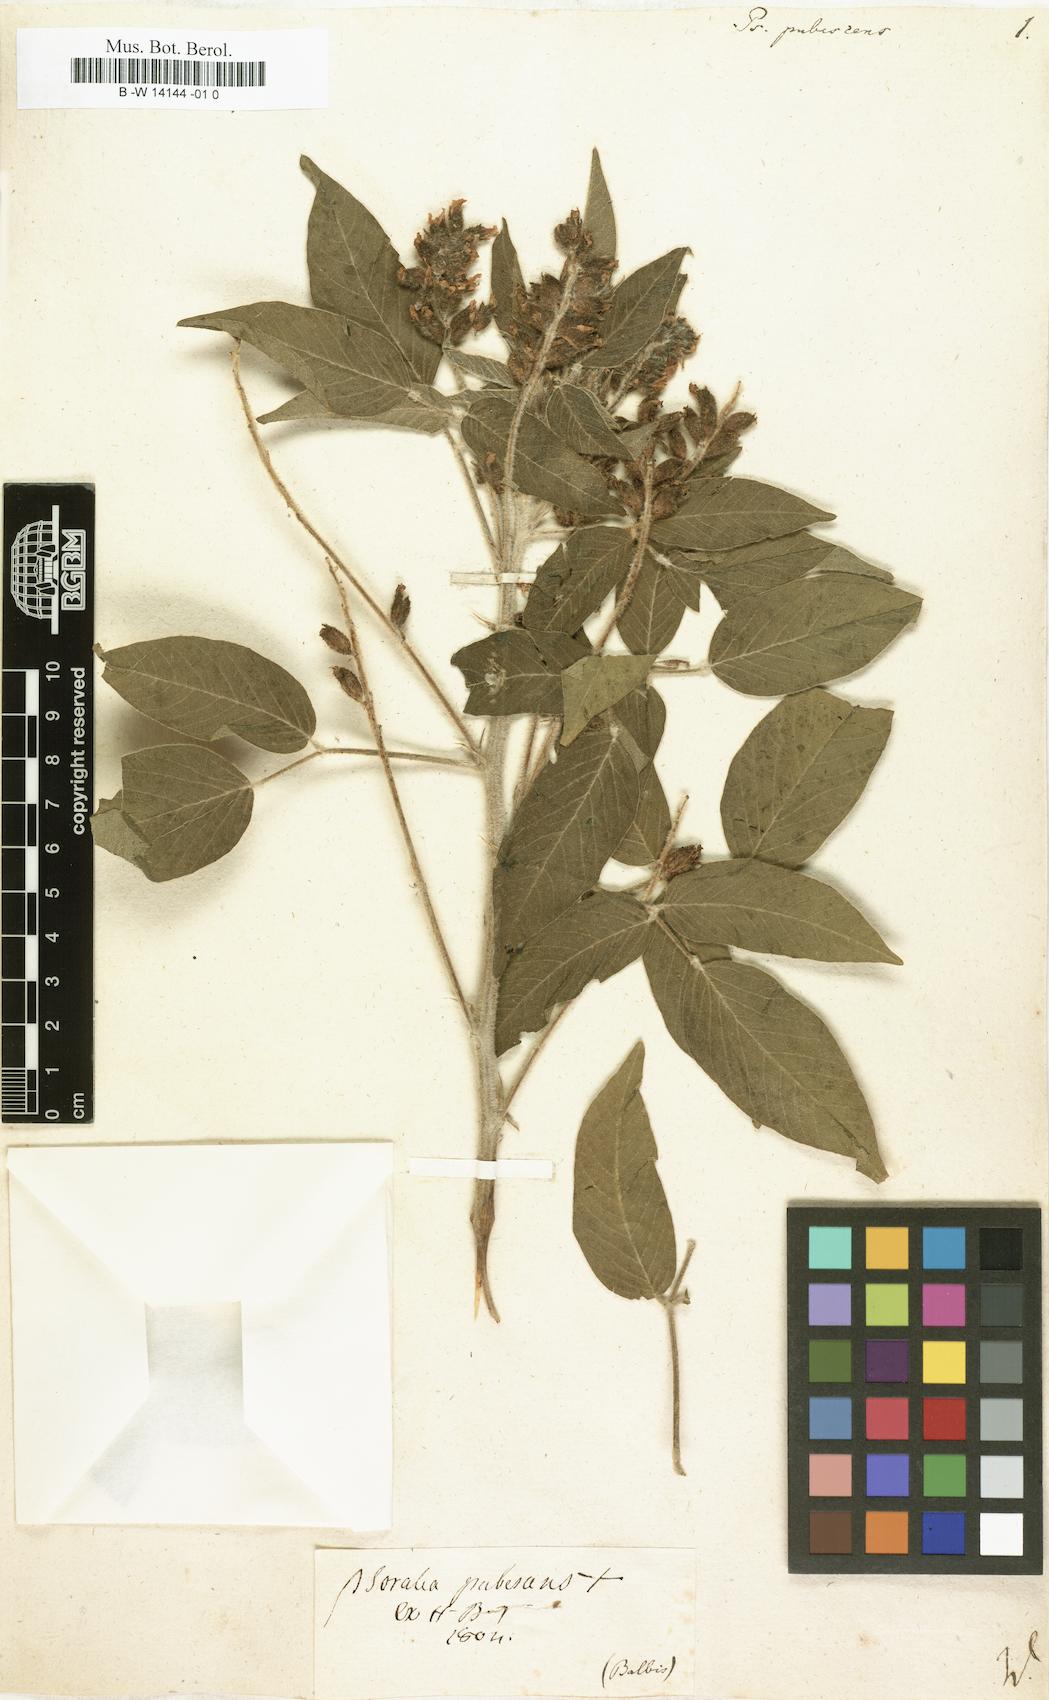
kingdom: Plantae
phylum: Tracheophyta
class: Magnoliopsida
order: Fabales
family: Fabaceae
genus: Psoralea
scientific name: Psoralea
